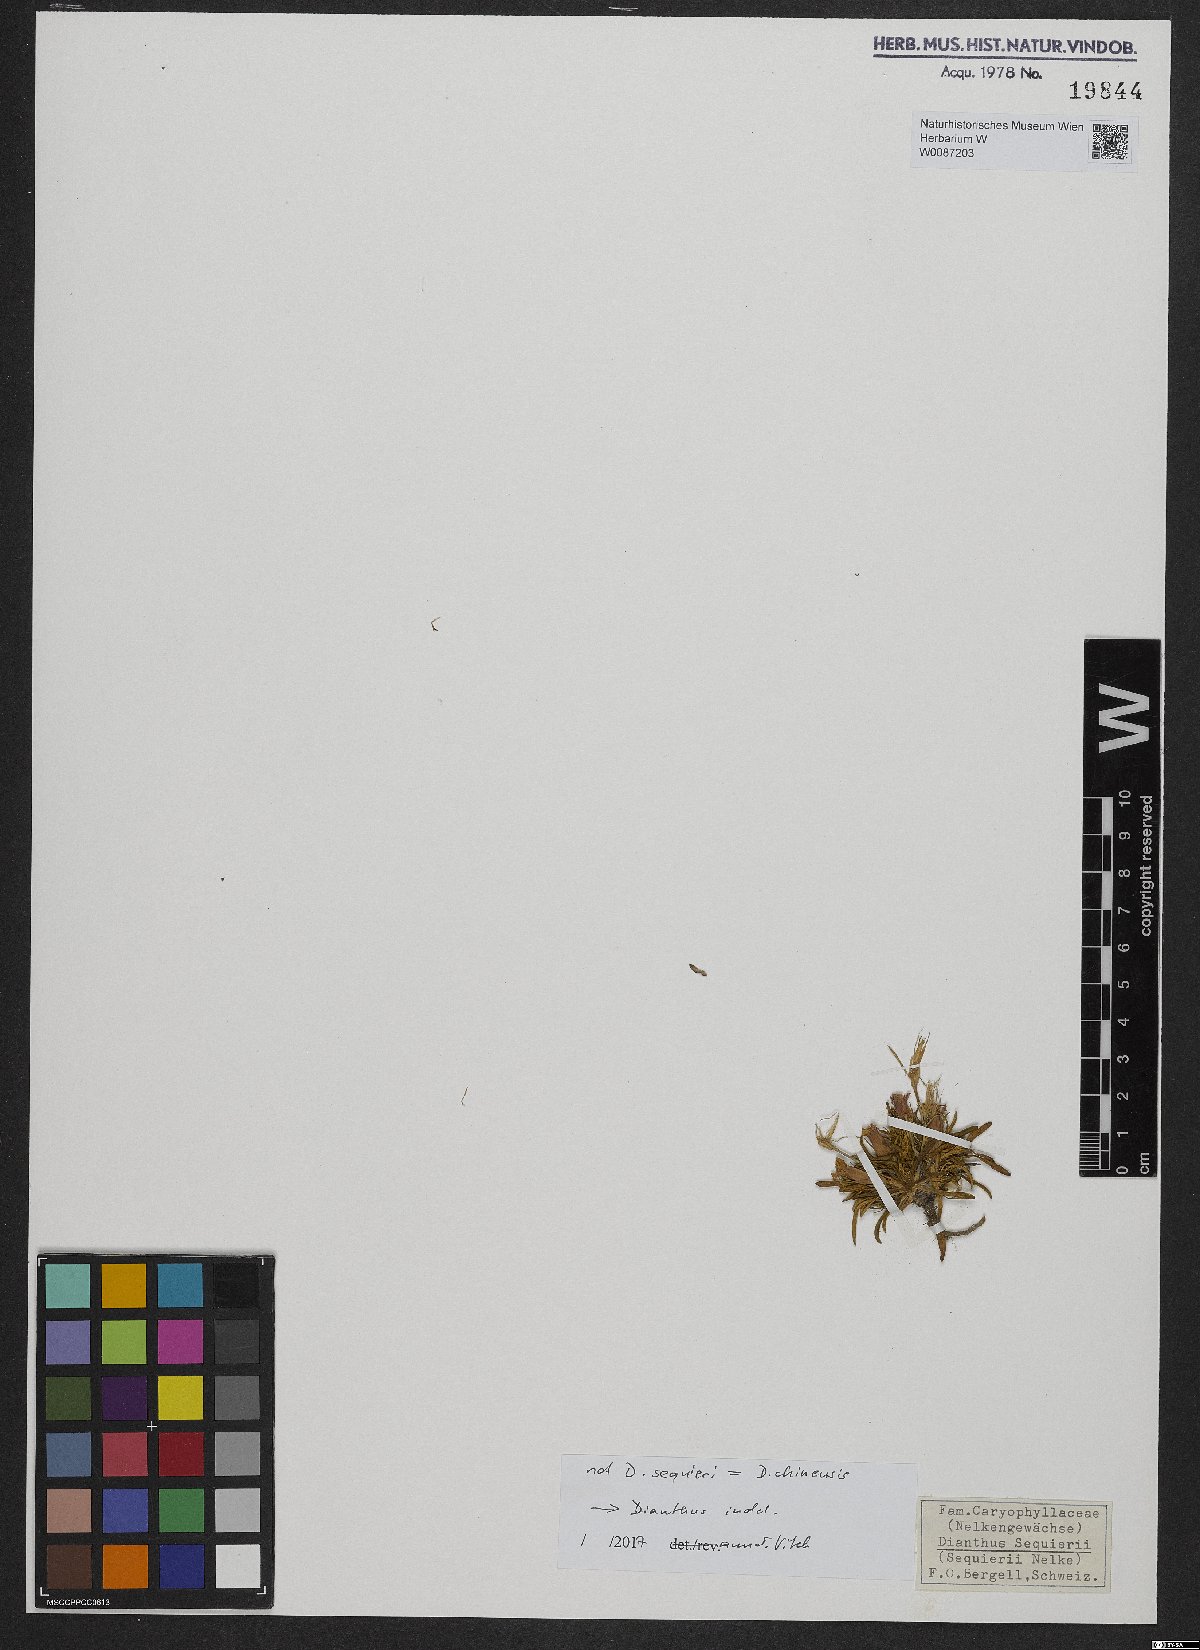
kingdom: Plantae
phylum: Tracheophyta
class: Magnoliopsida
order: Caryophyllales
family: Caryophyllaceae
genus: Dianthus
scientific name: Dianthus
